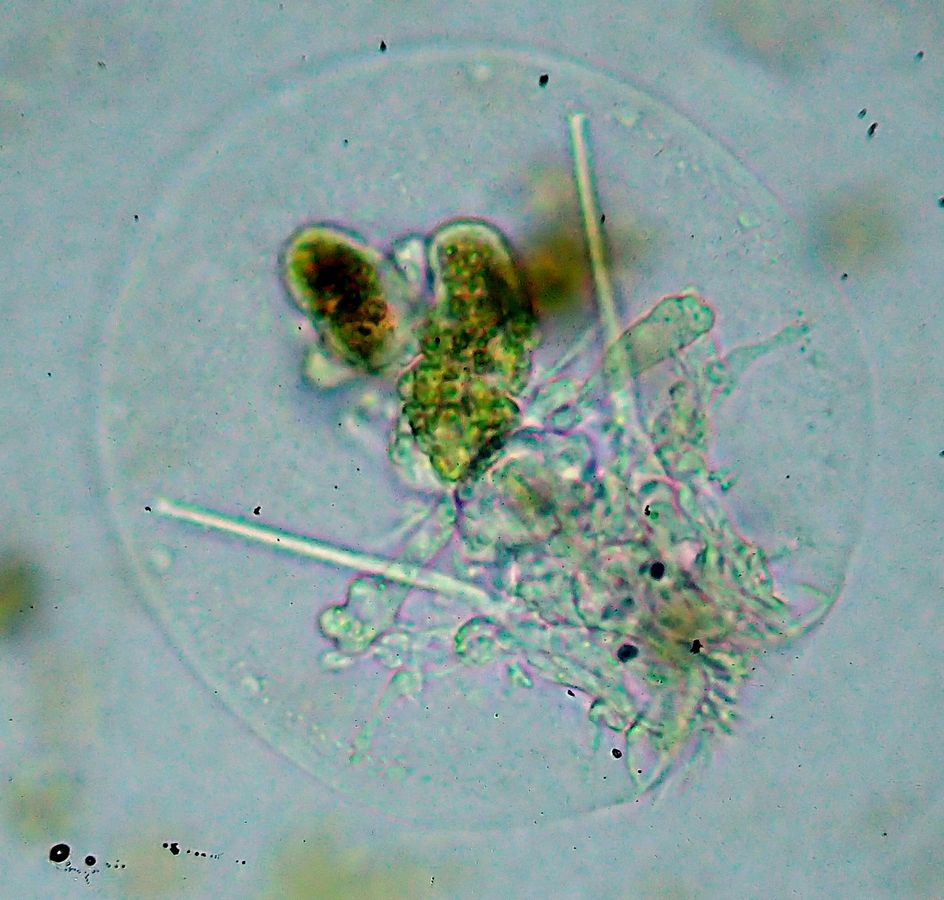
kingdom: Animalia
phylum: Rotifera
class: Eurotatoria
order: Flosculariaceae
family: Testudinellidae
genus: Testudinella
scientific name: Testudinella patina
